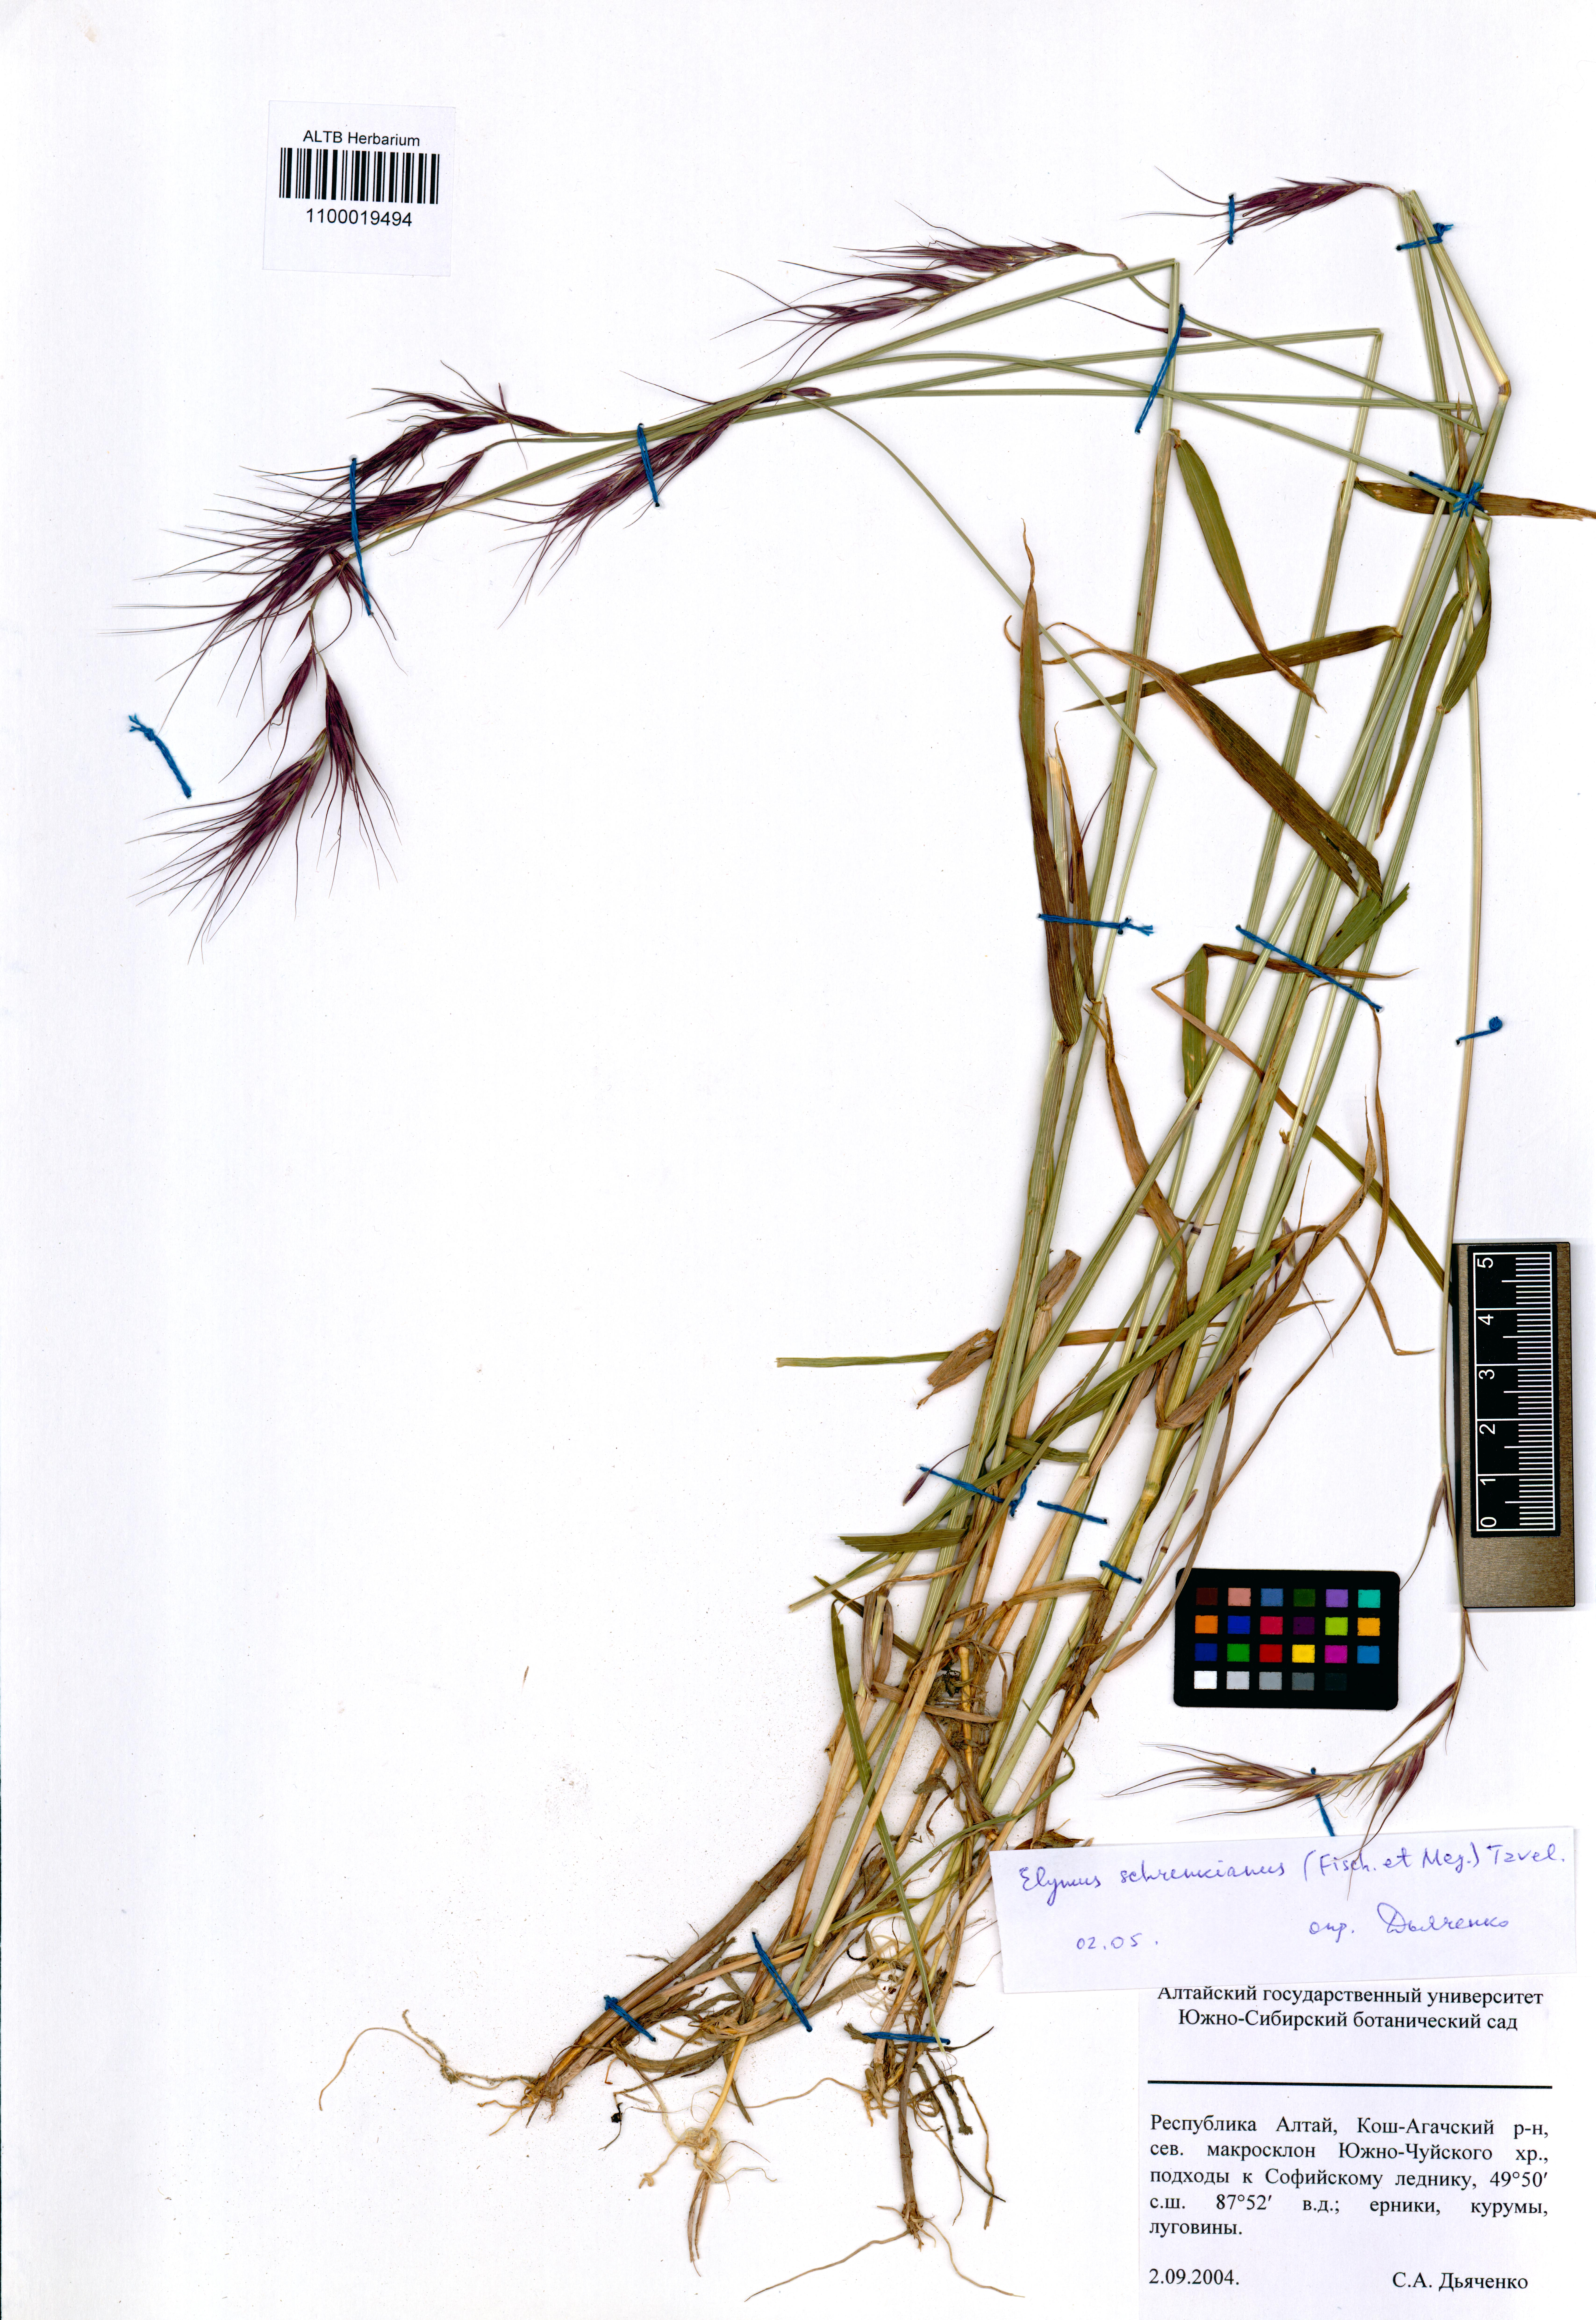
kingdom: Plantae
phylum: Tracheophyta
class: Liliopsida
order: Poales
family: Poaceae
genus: Campeiostachys
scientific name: Campeiostachys schrenkiana
